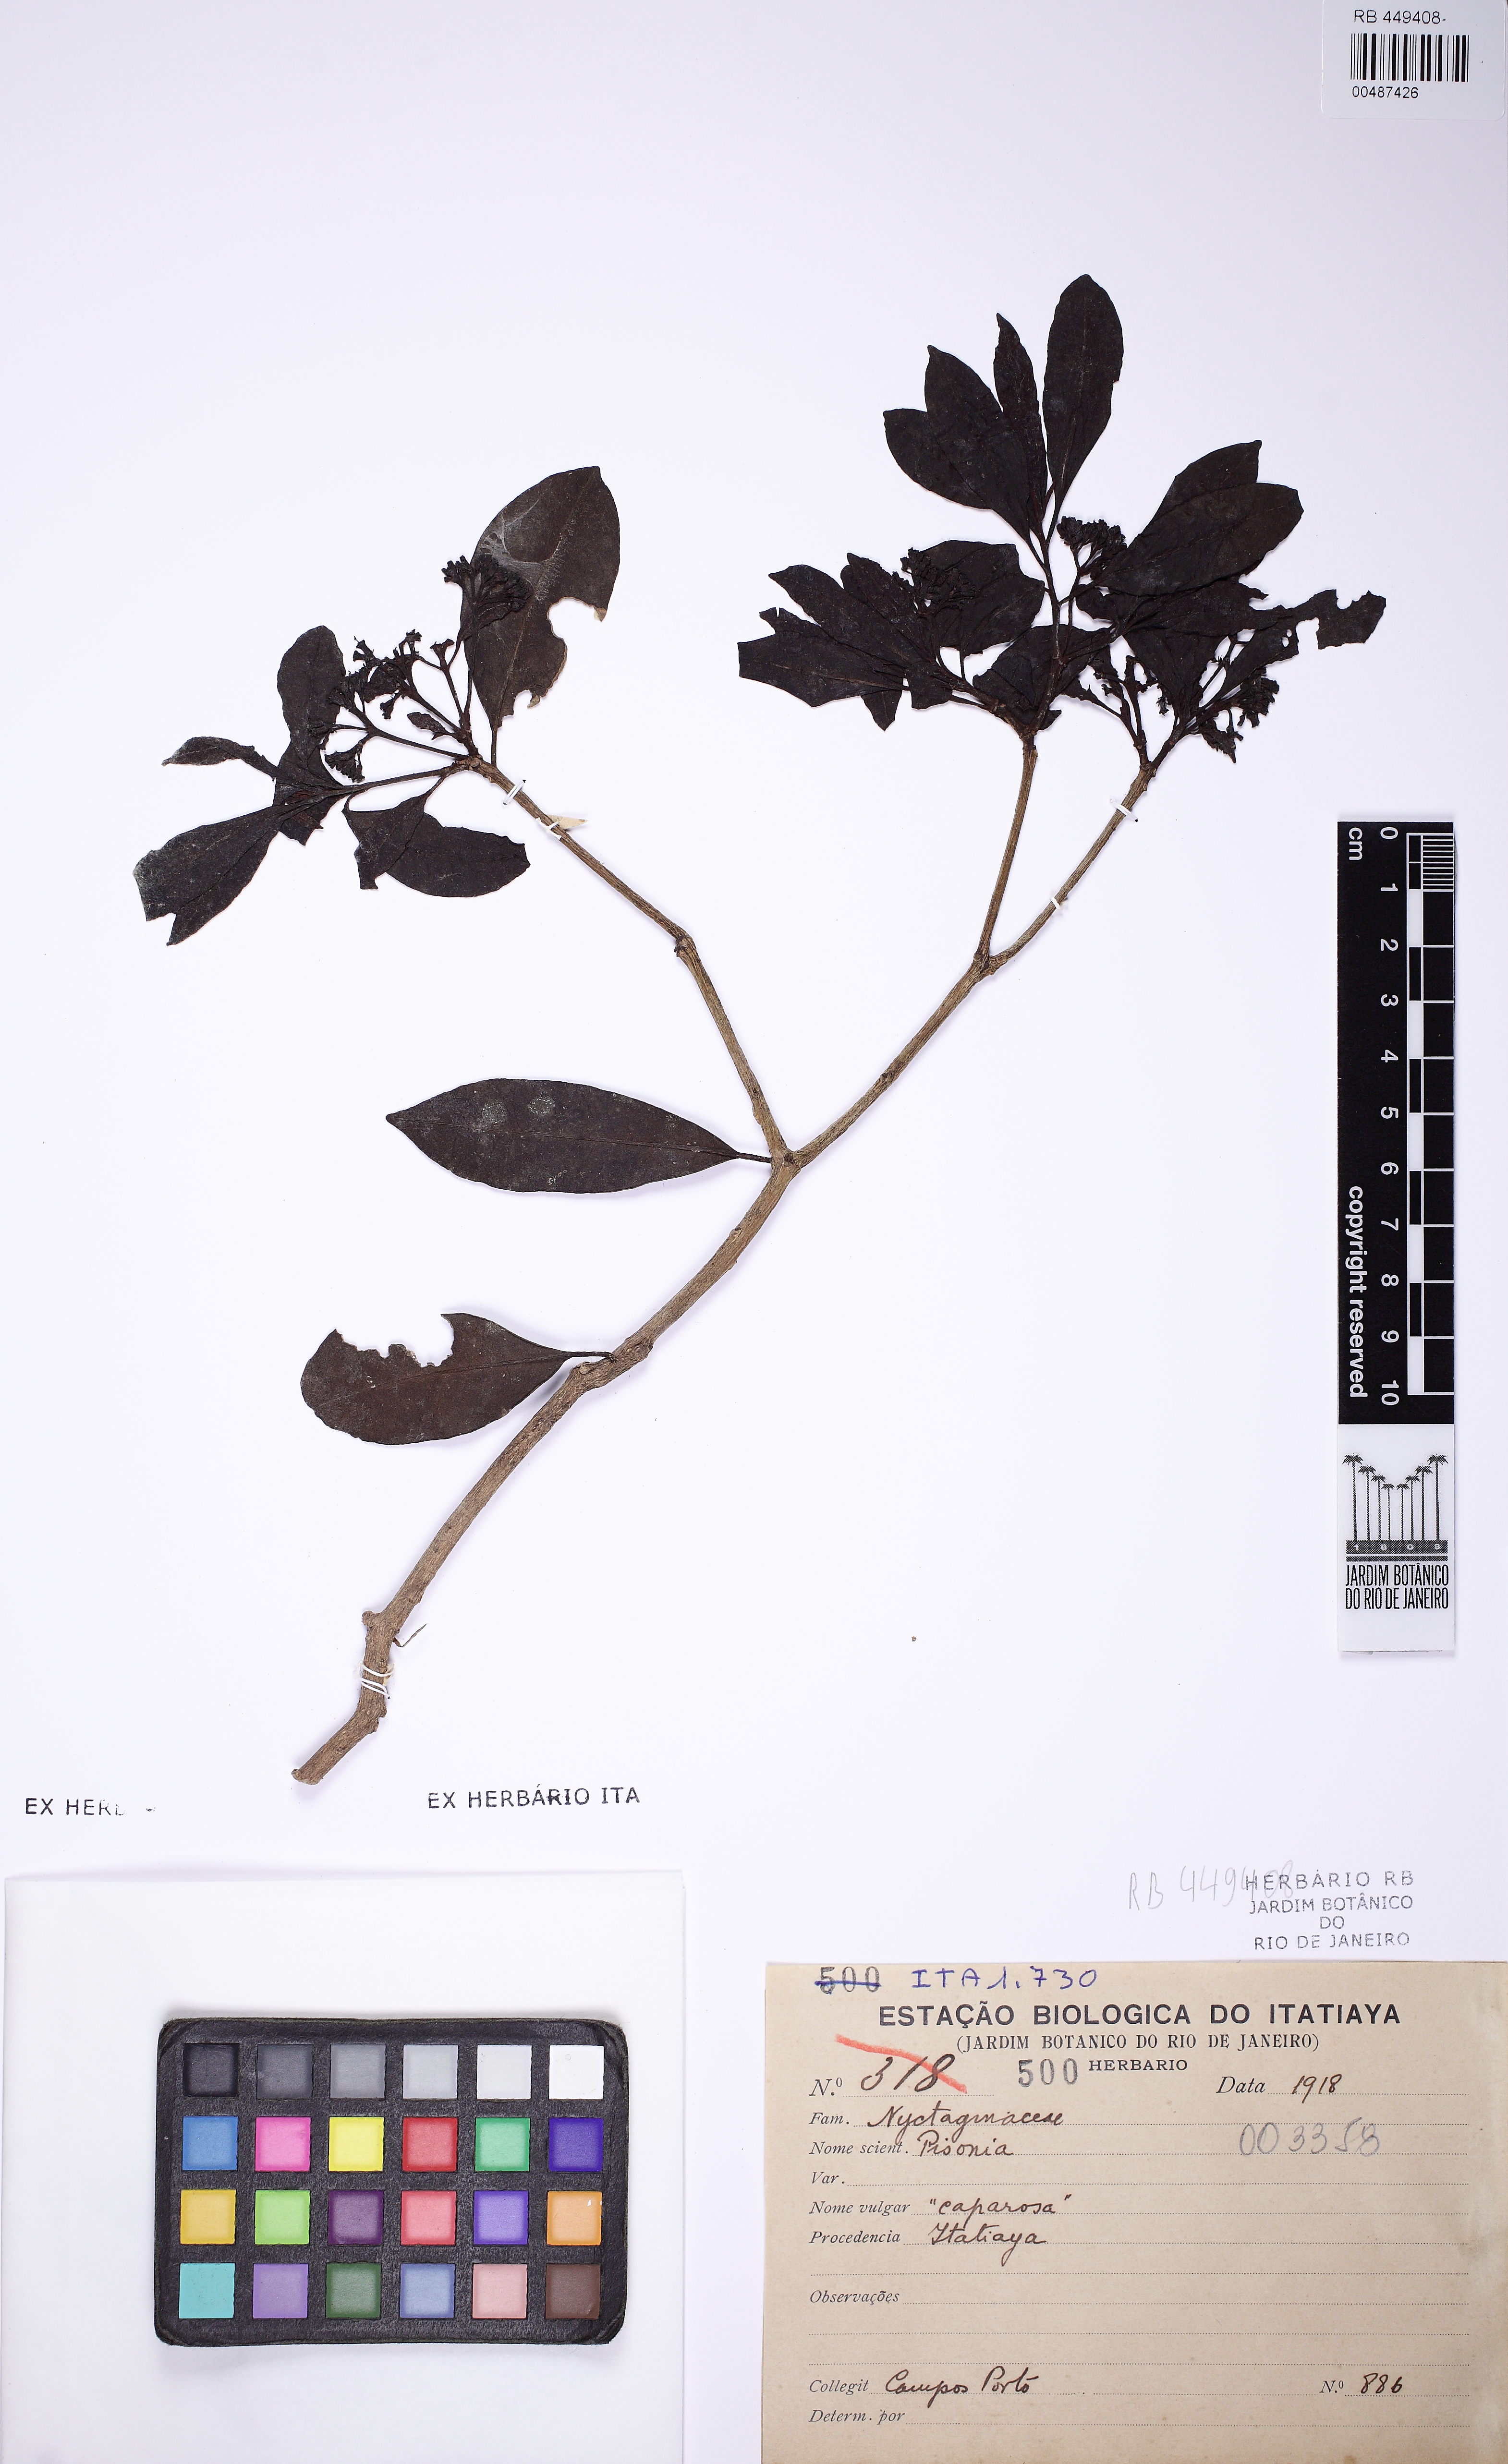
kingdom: Plantae
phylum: Tracheophyta
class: Magnoliopsida
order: Caryophyllales
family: Nyctaginaceae
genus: Pisonia
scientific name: Pisonia
